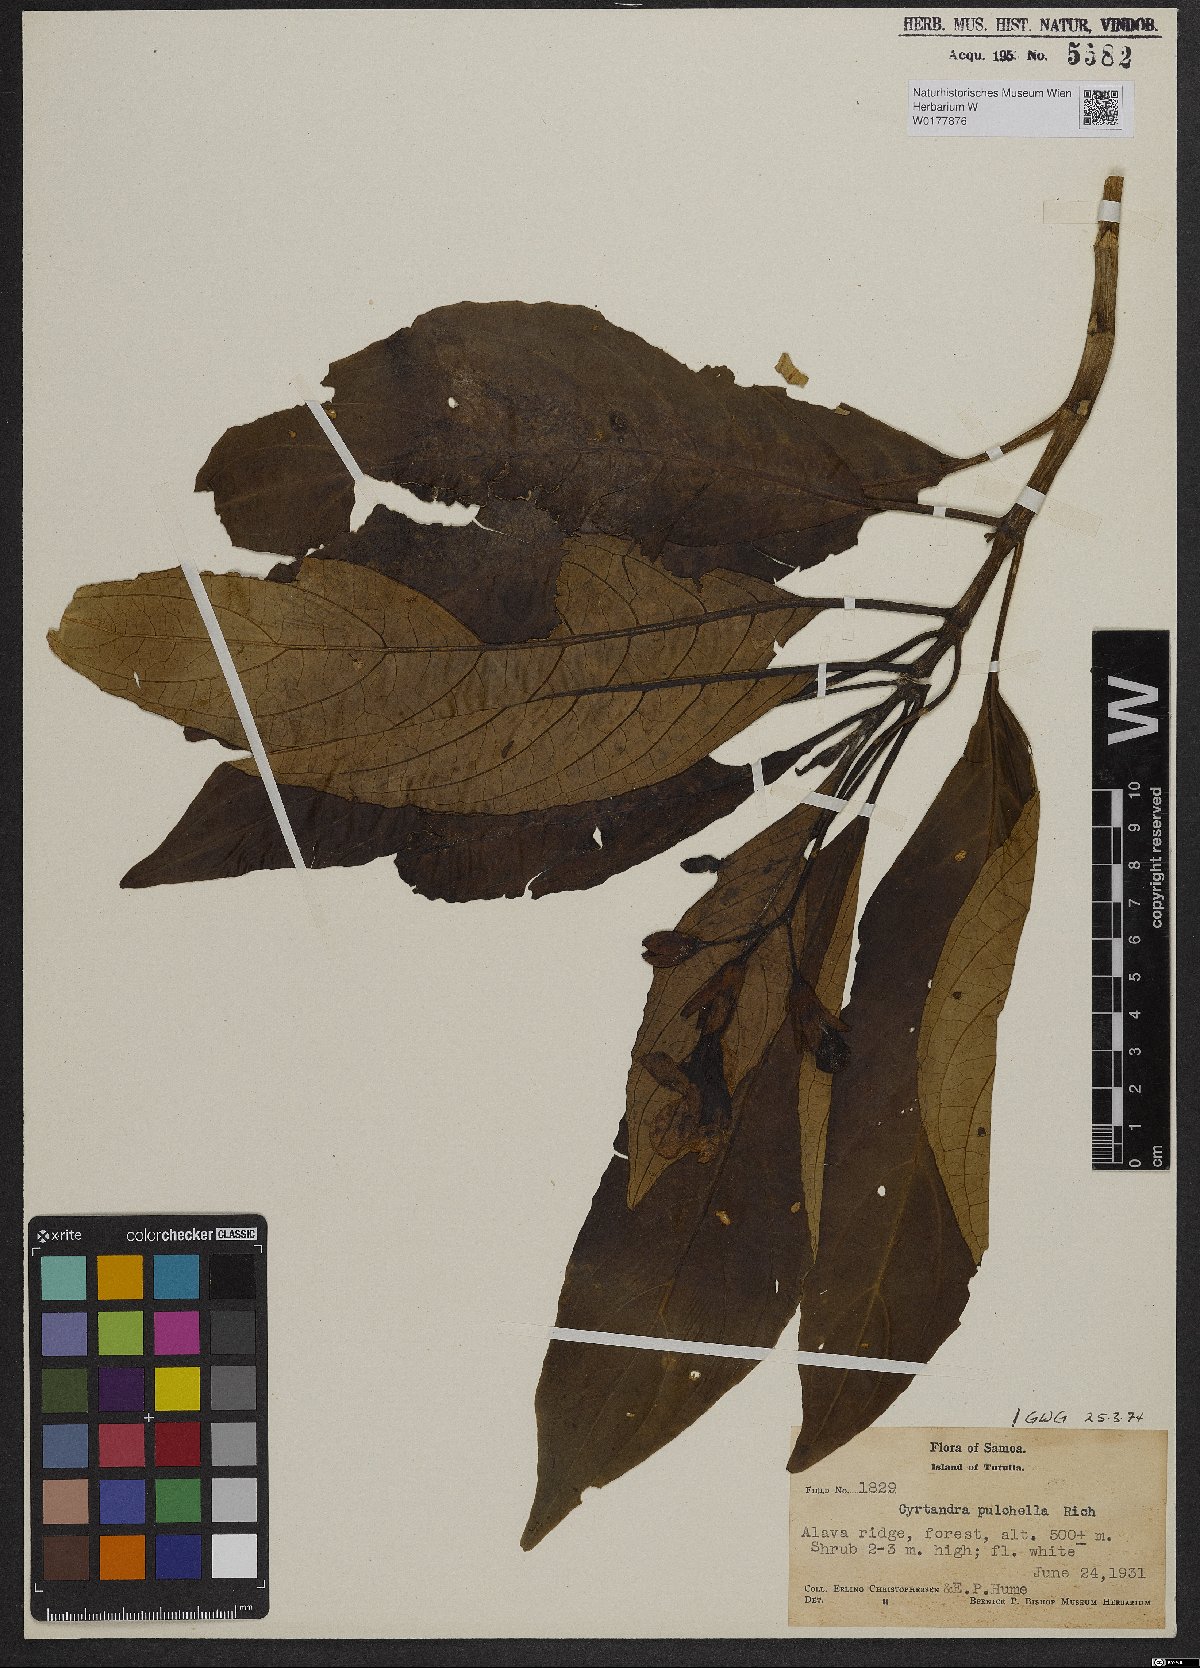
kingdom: Plantae
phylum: Tracheophyta
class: Magnoliopsida
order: Lamiales
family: Gesneriaceae
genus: Cyrtandra
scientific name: Cyrtandra
